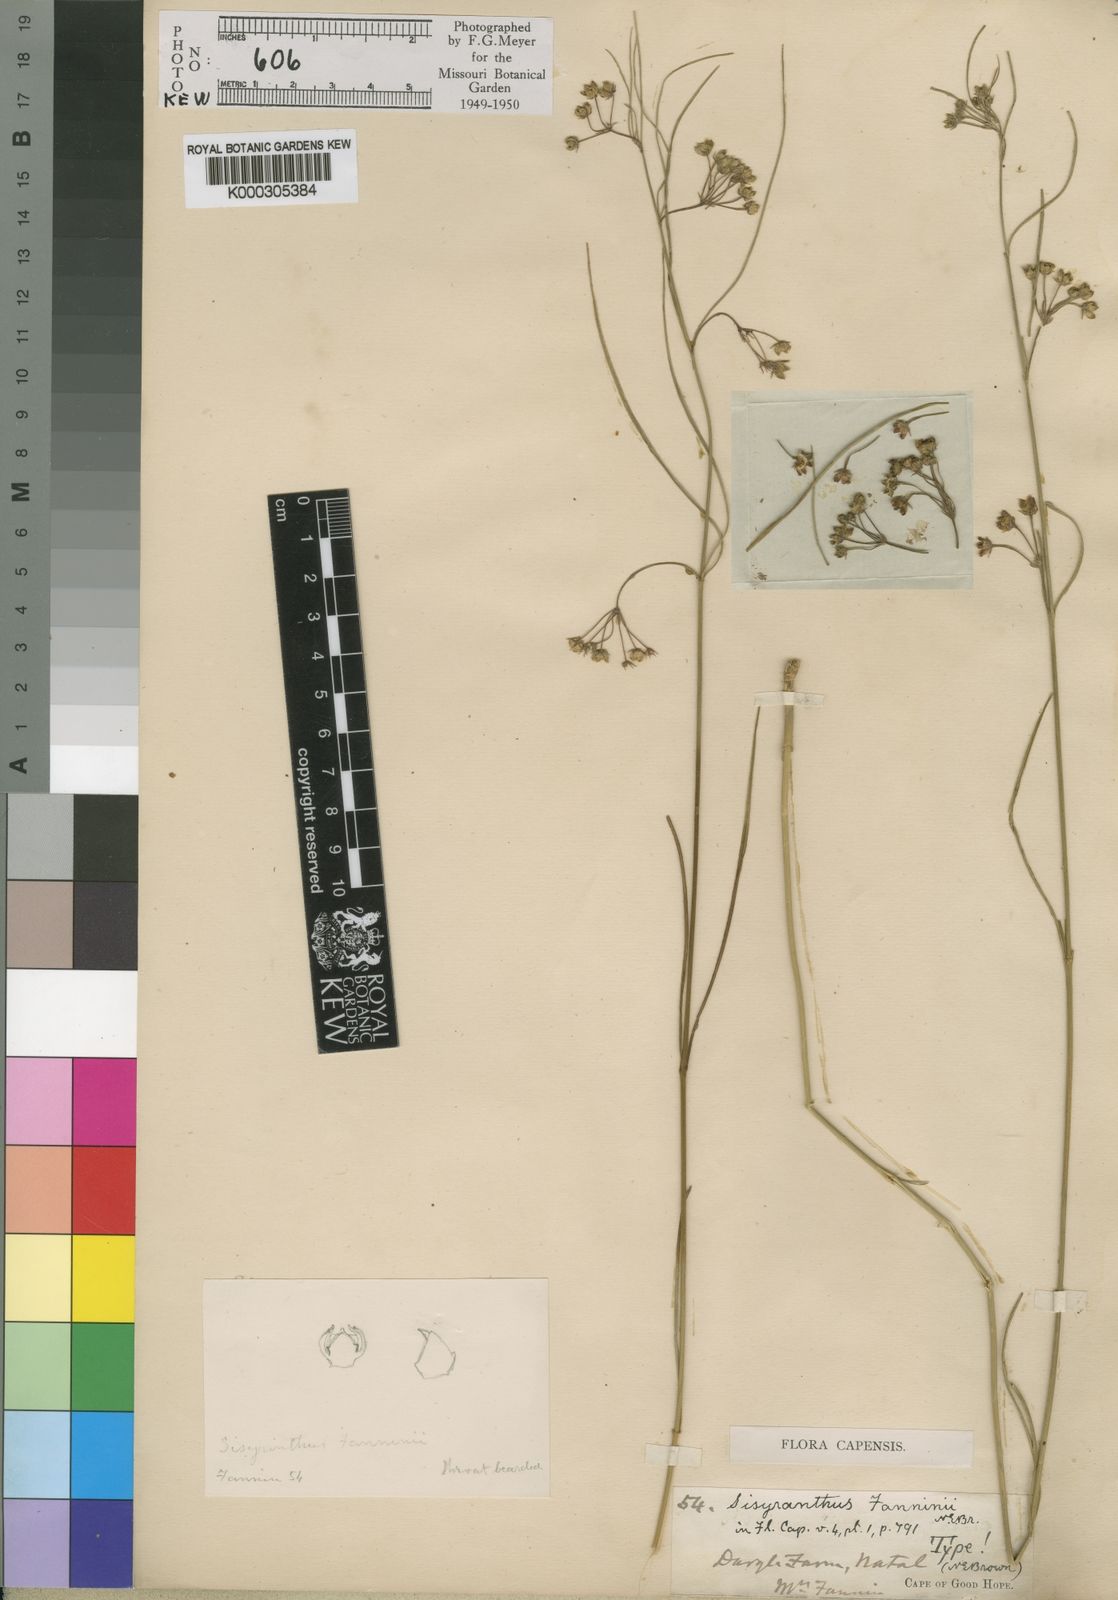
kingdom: Plantae
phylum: Tracheophyta
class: Magnoliopsida
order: Gentianales
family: Apocynaceae
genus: Sisyranthus
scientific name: Sisyranthus fanniniae
